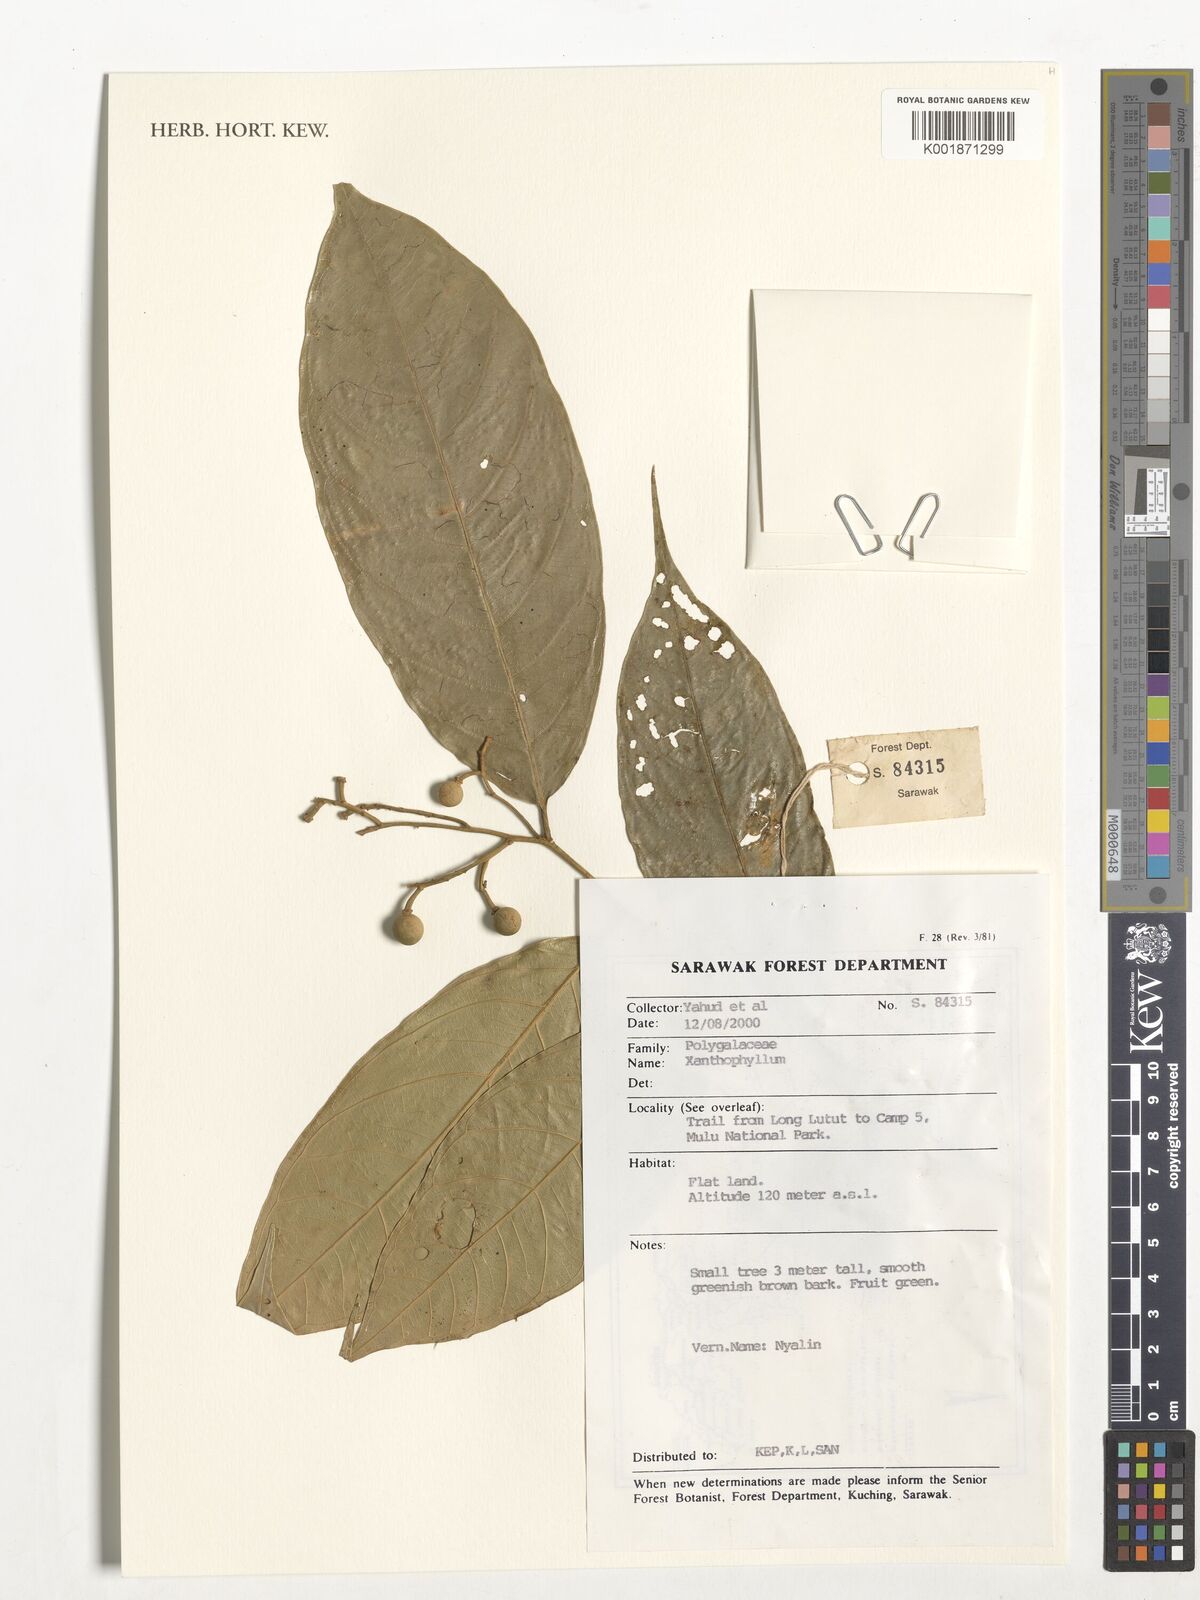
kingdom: Plantae
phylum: Tracheophyta
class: Magnoliopsida
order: Fabales
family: Polygalaceae
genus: Xanthophyllum
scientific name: Xanthophyllum
